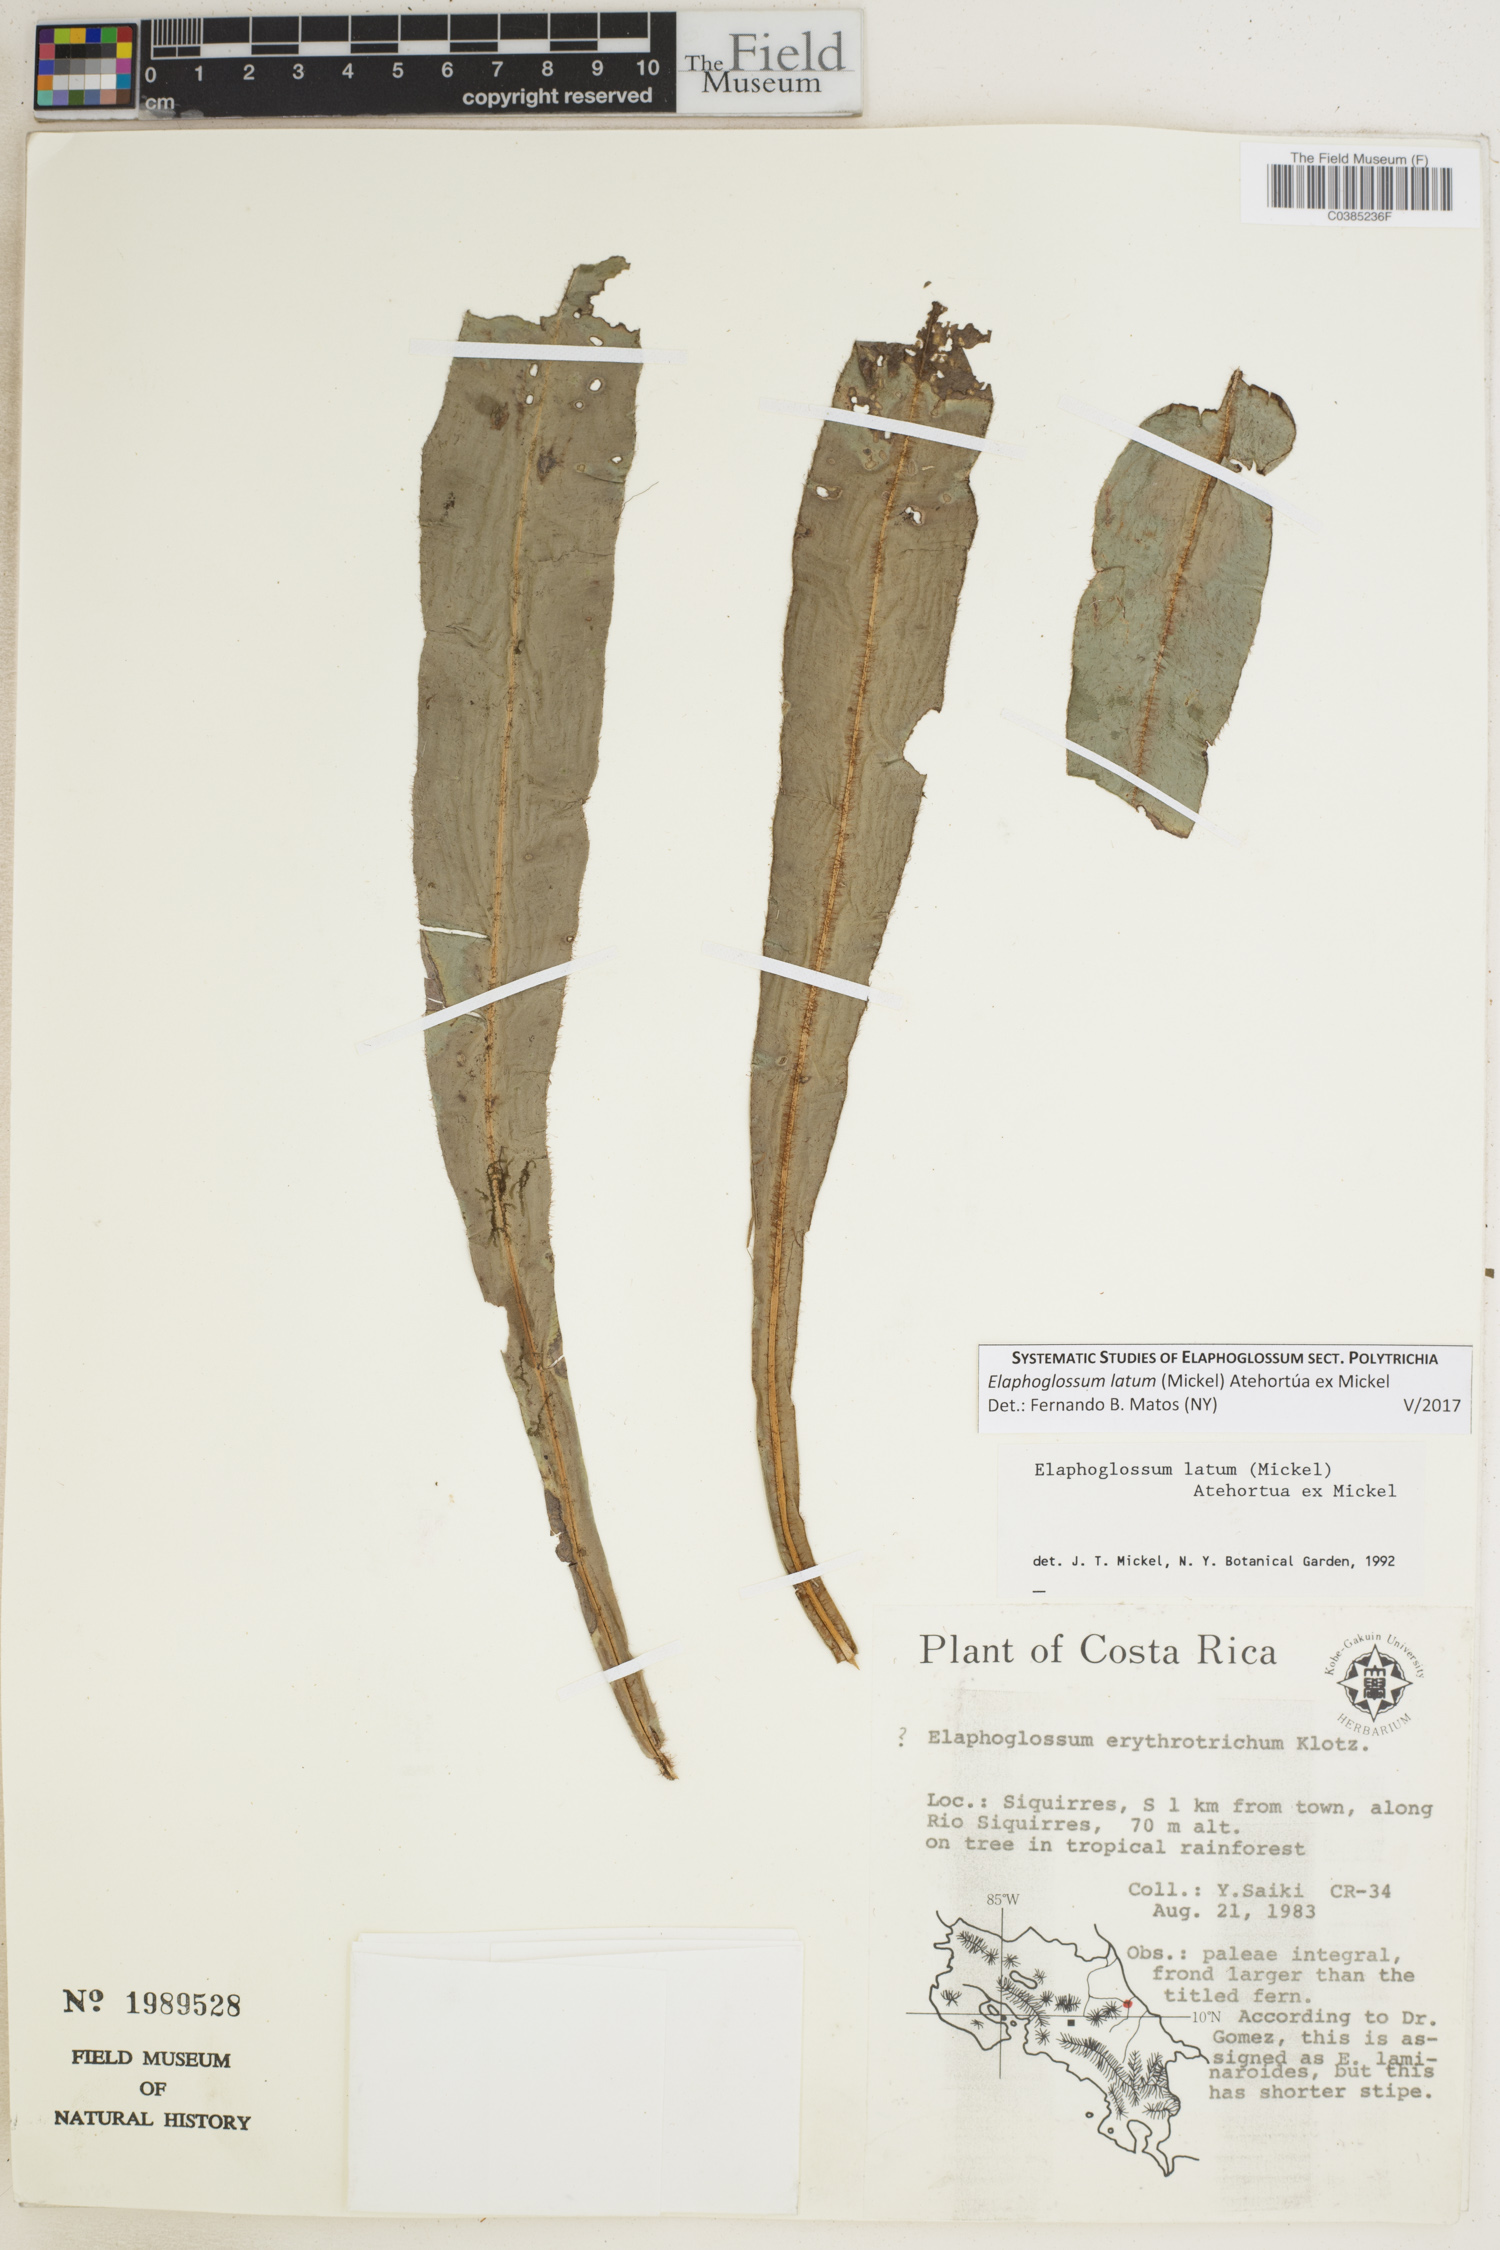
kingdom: Plantae
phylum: Tracheophyta
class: Polypodiopsida
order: Polypodiales
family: Dryopteridaceae
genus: Elaphoglossum
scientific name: Elaphoglossum latum
